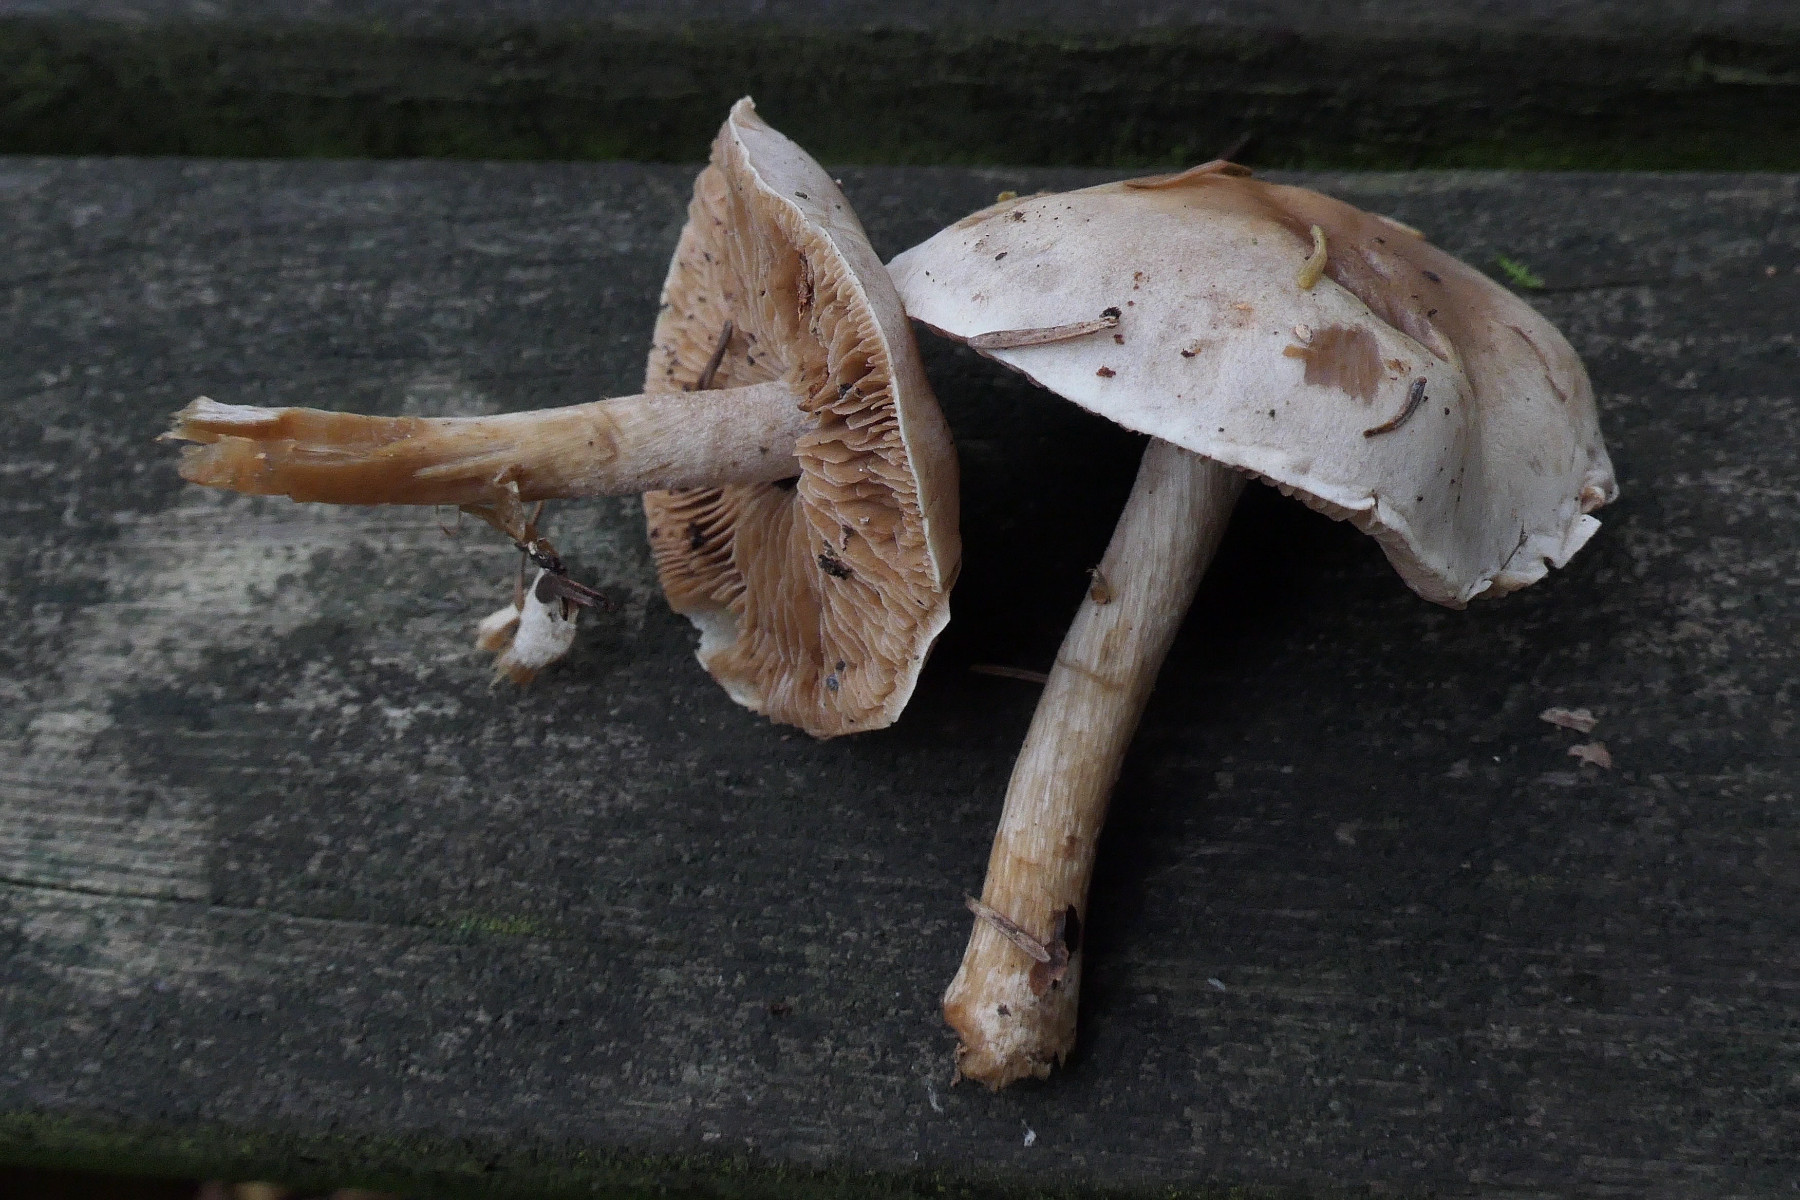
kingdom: Fungi
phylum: Basidiomycota
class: Agaricomycetes
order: Agaricales
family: Hymenogastraceae
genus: Hebeloma
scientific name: Hebeloma laterinum
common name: kakao-tåreblad
